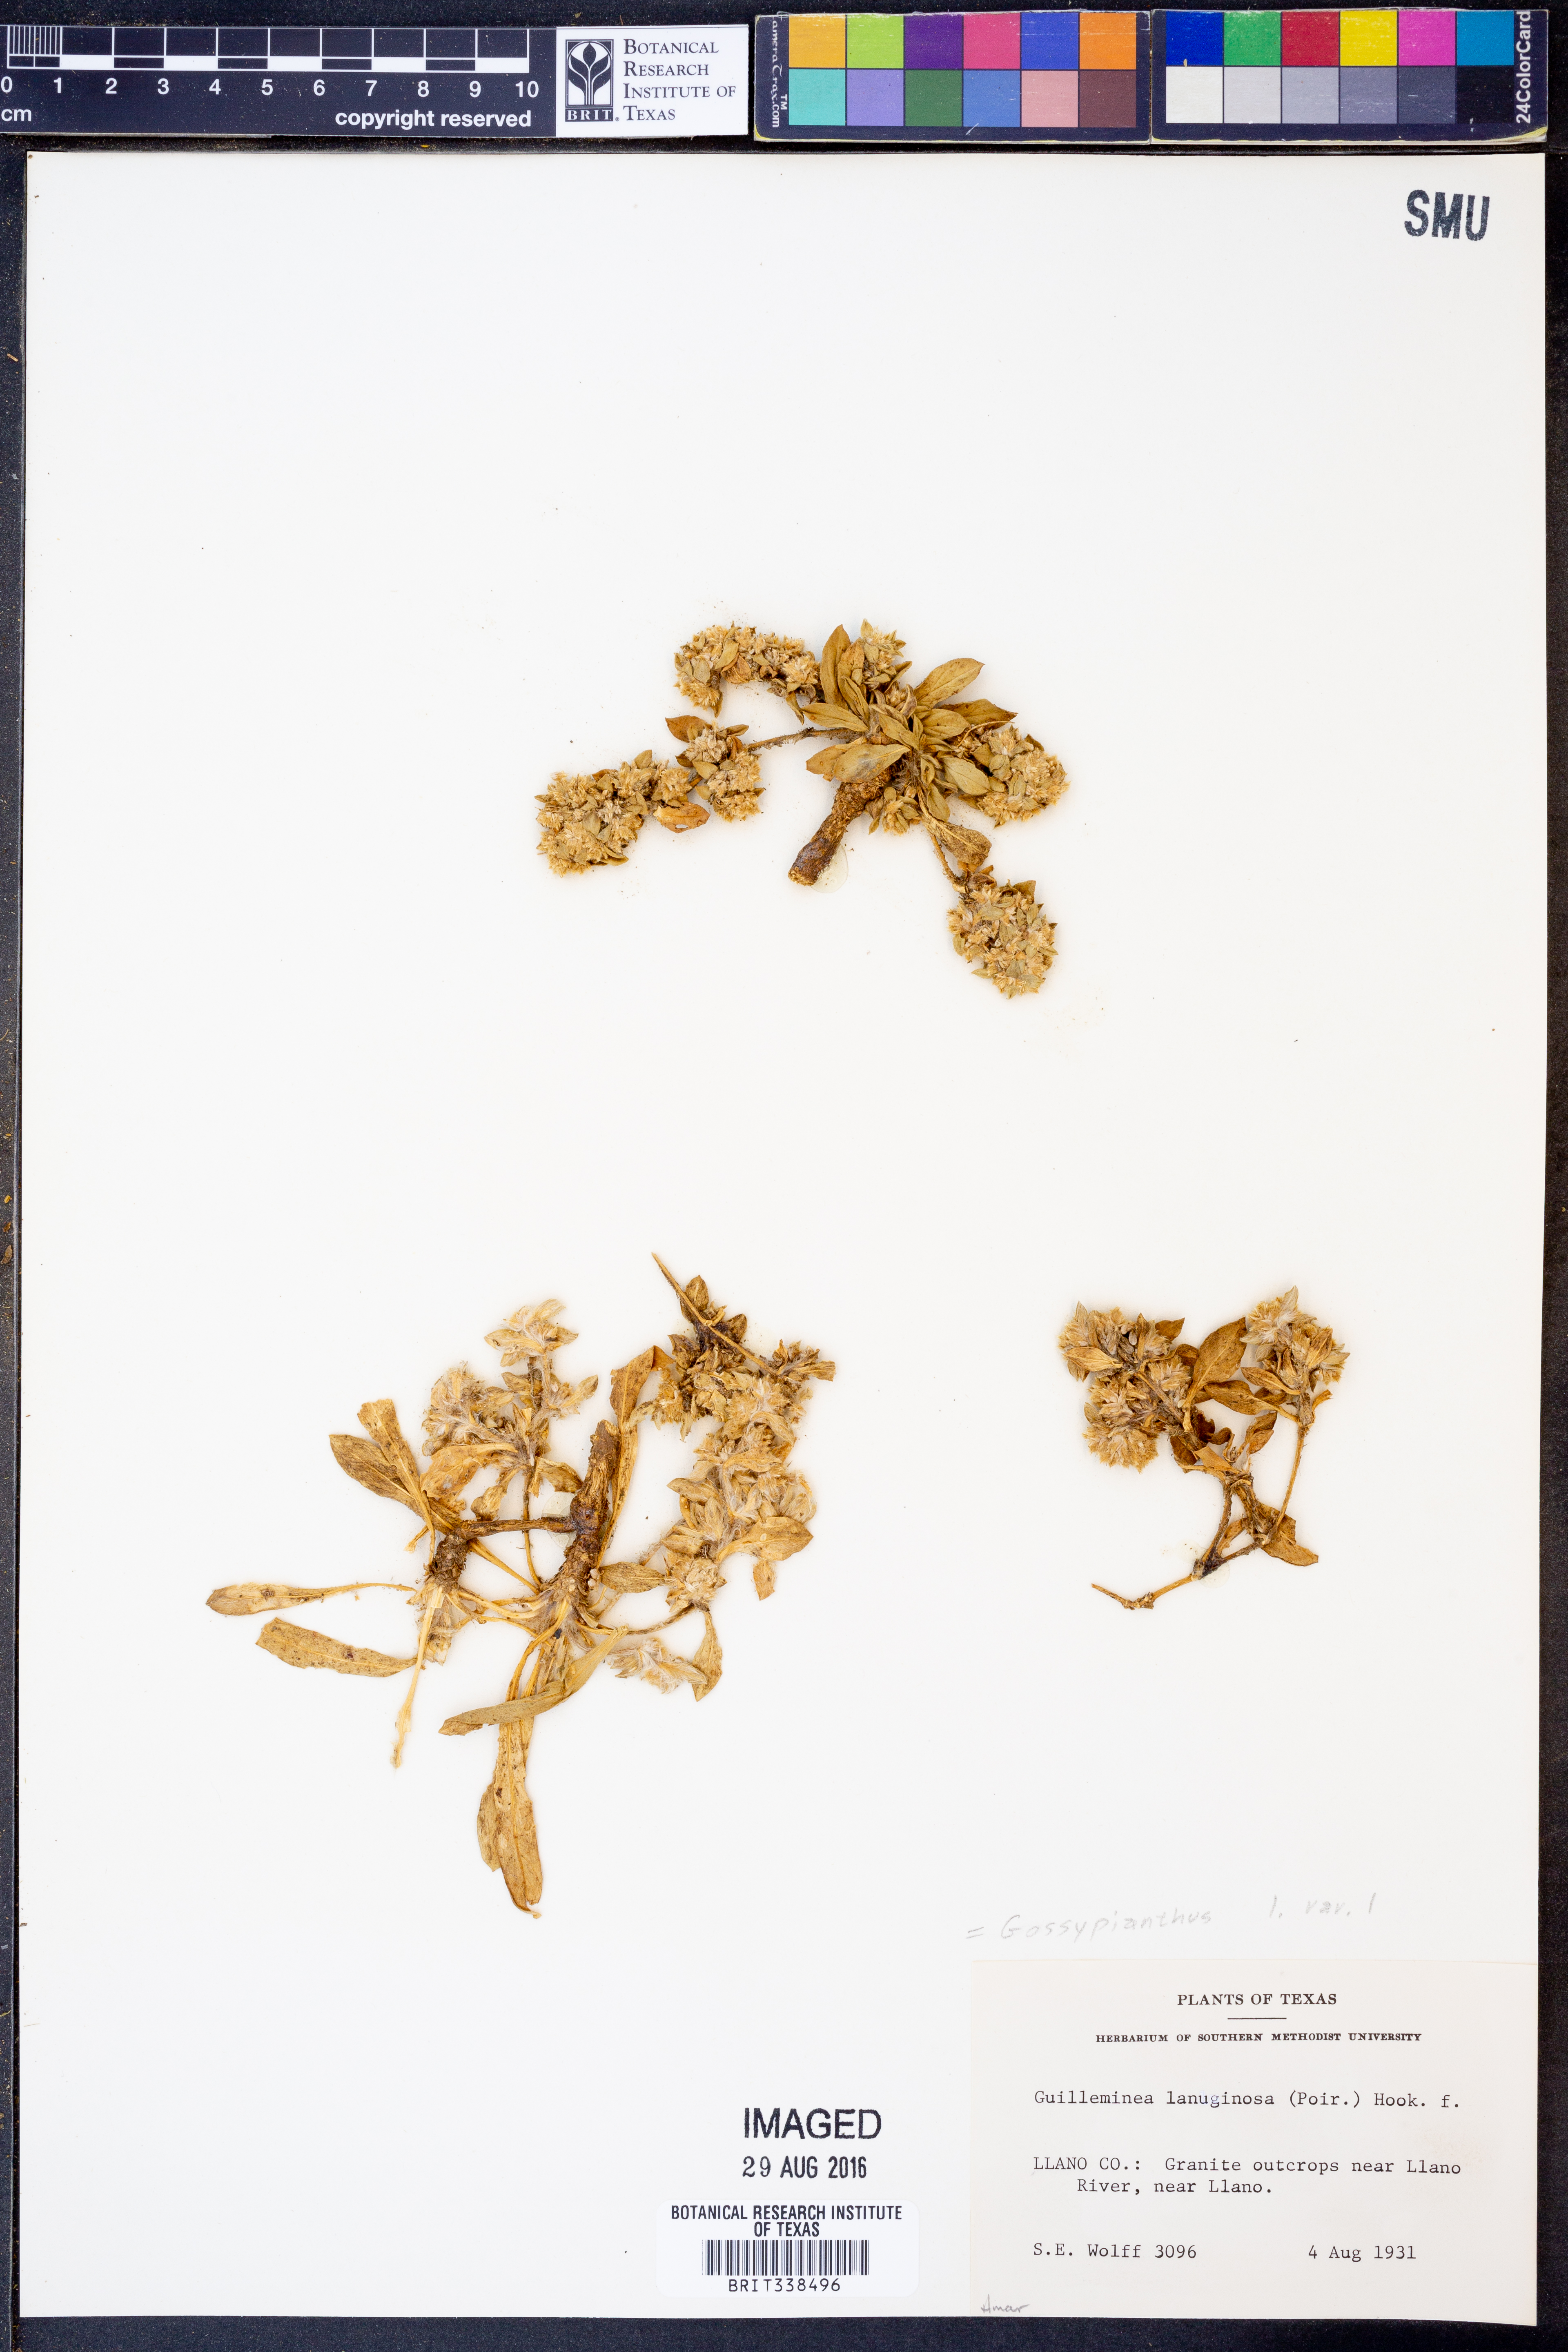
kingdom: Plantae
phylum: Tracheophyta
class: Magnoliopsida
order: Caryophyllales
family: Amaranthaceae
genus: Gomphrena
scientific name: Gomphrena lanuparonychioides
